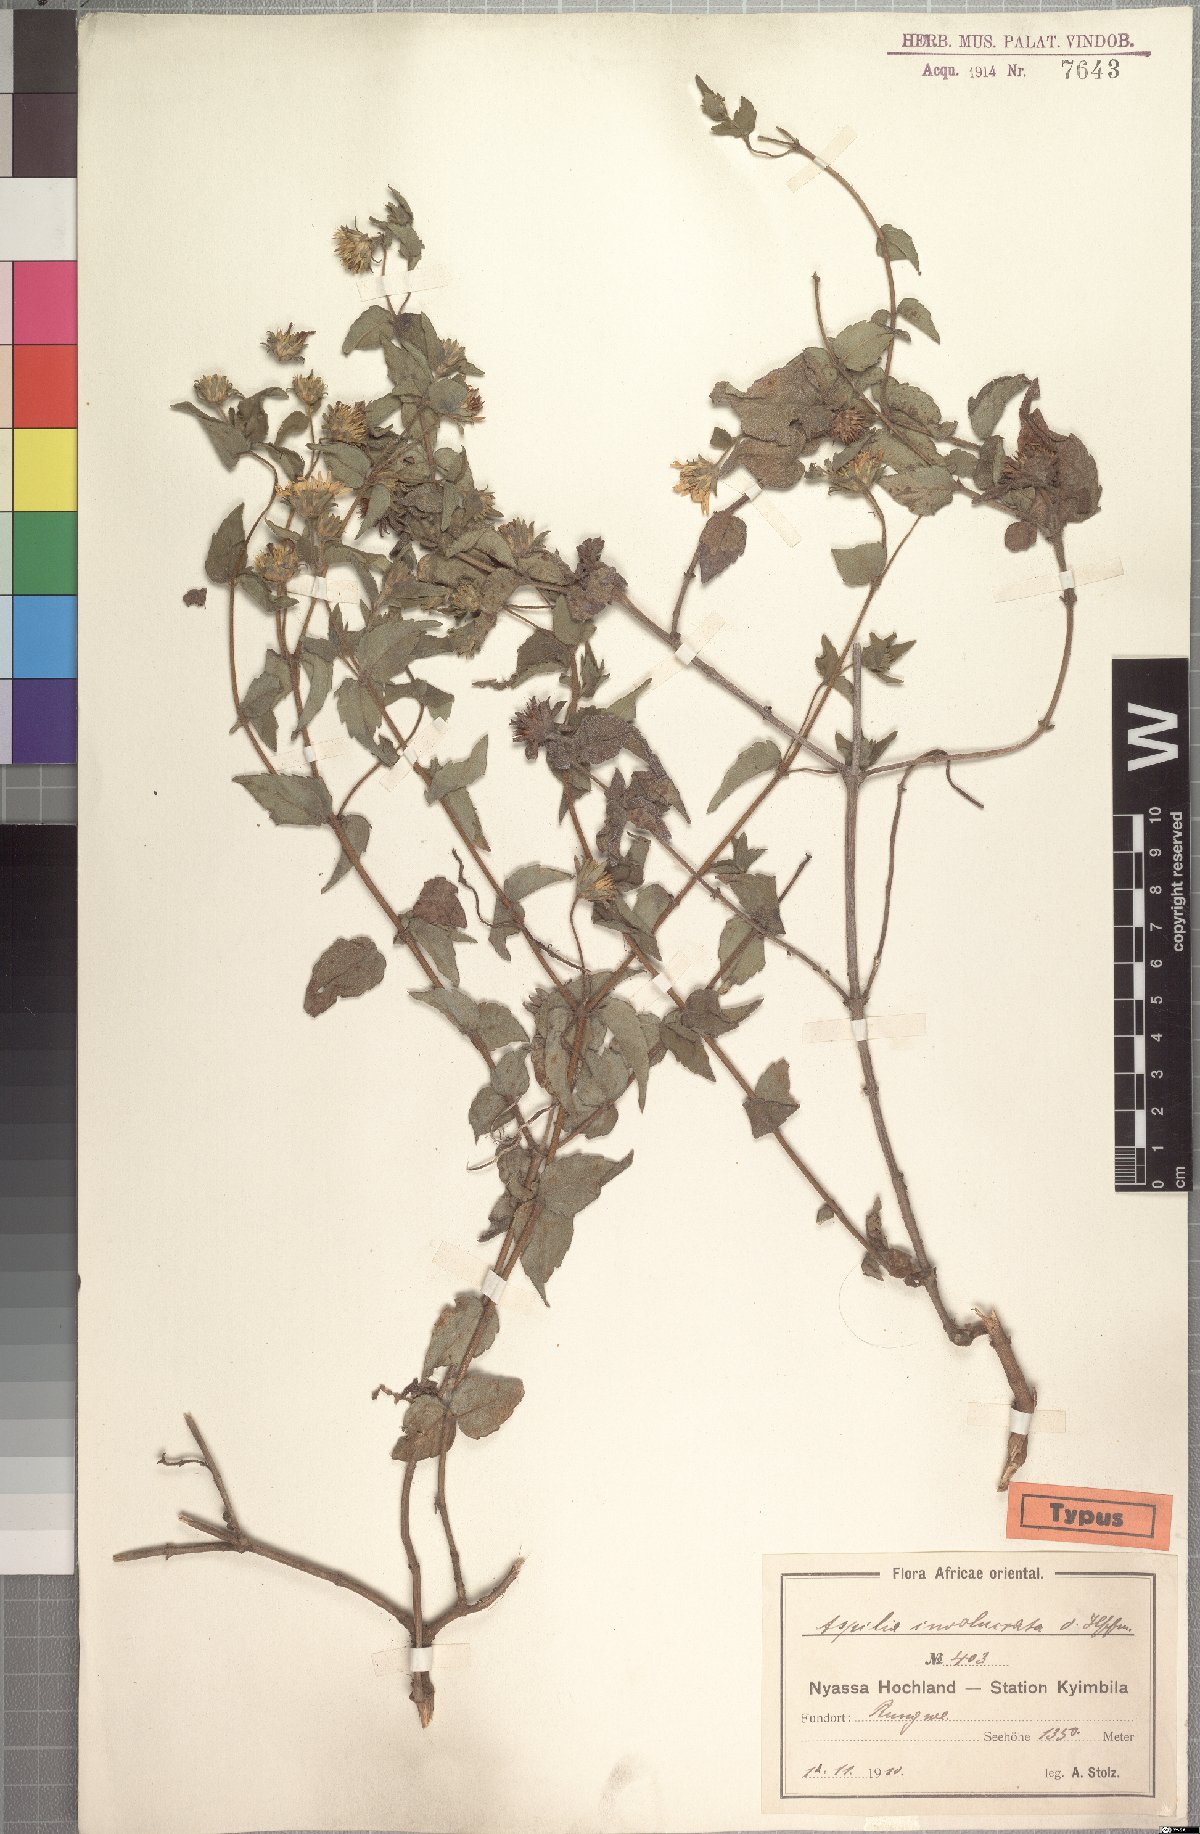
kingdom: Plantae
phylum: Tracheophyta
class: Magnoliopsida
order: Asterales
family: Asteraceae
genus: Aspilia
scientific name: Aspilia pluriseta
